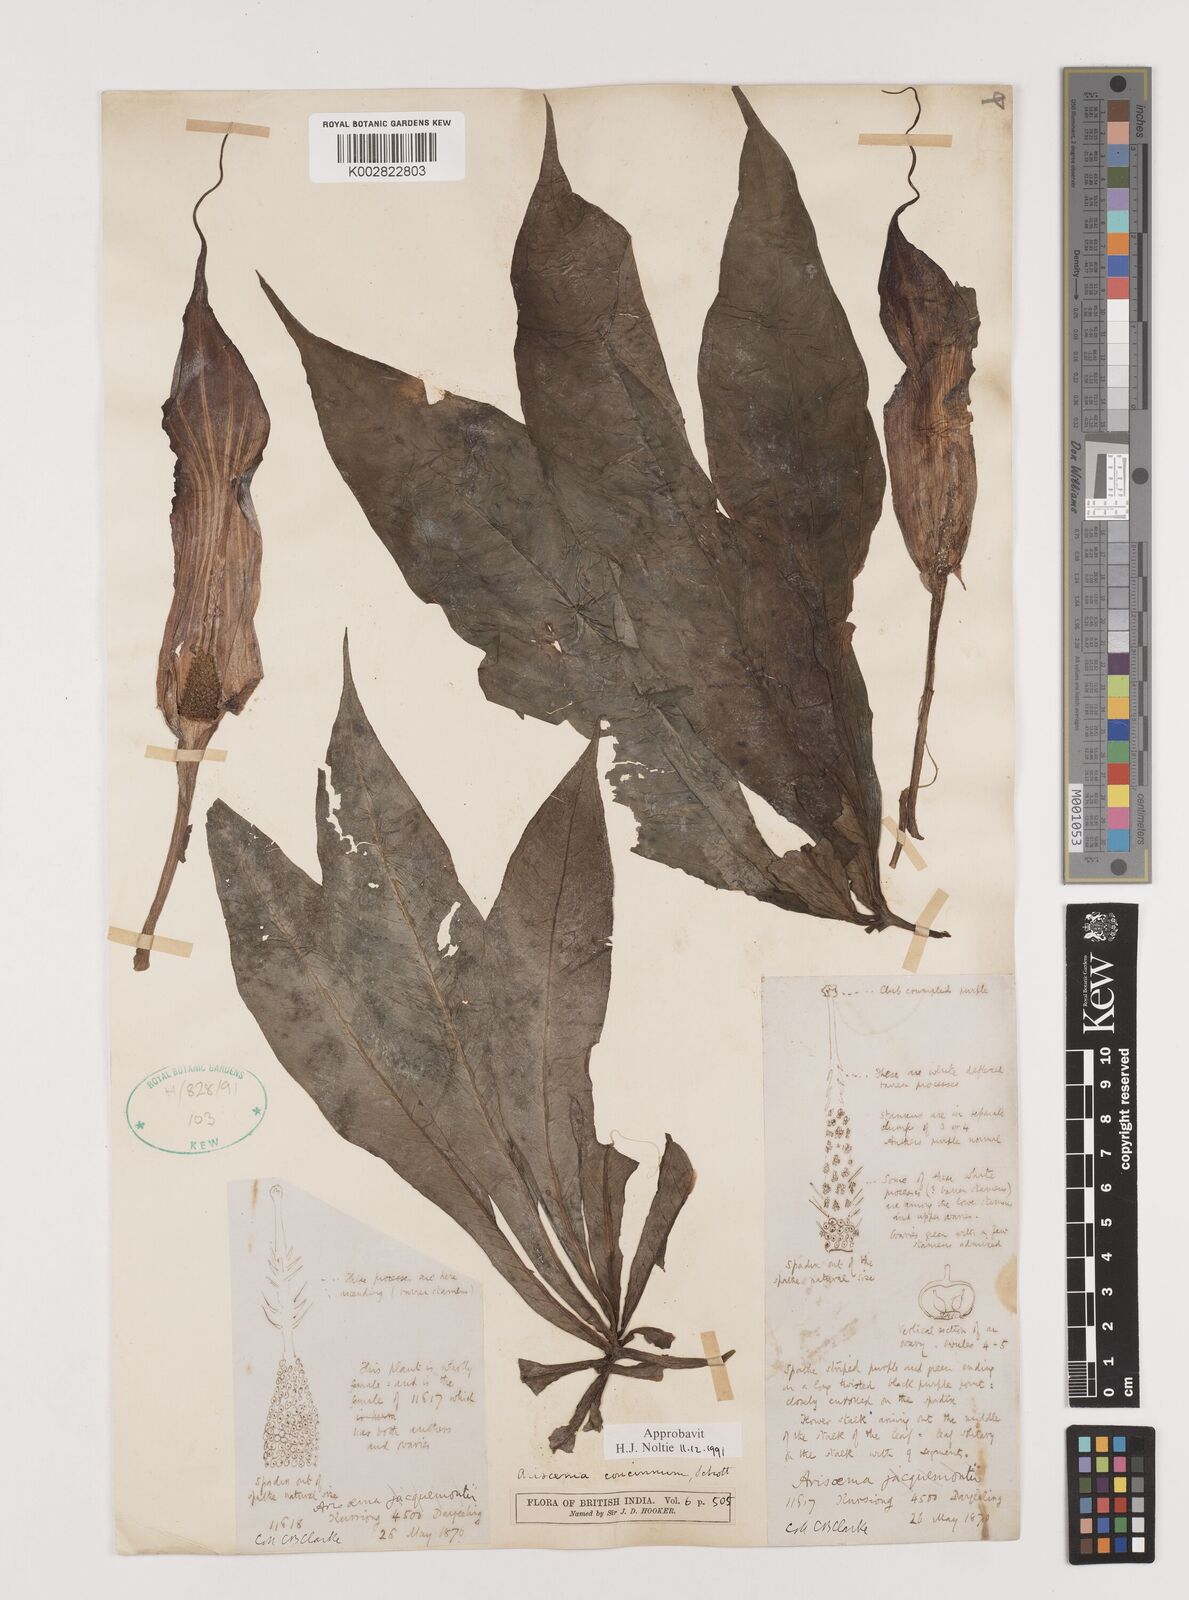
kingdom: Plantae
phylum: Tracheophyta
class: Liliopsida
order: Alismatales
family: Araceae
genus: Arisaema
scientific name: Arisaema concinnum
